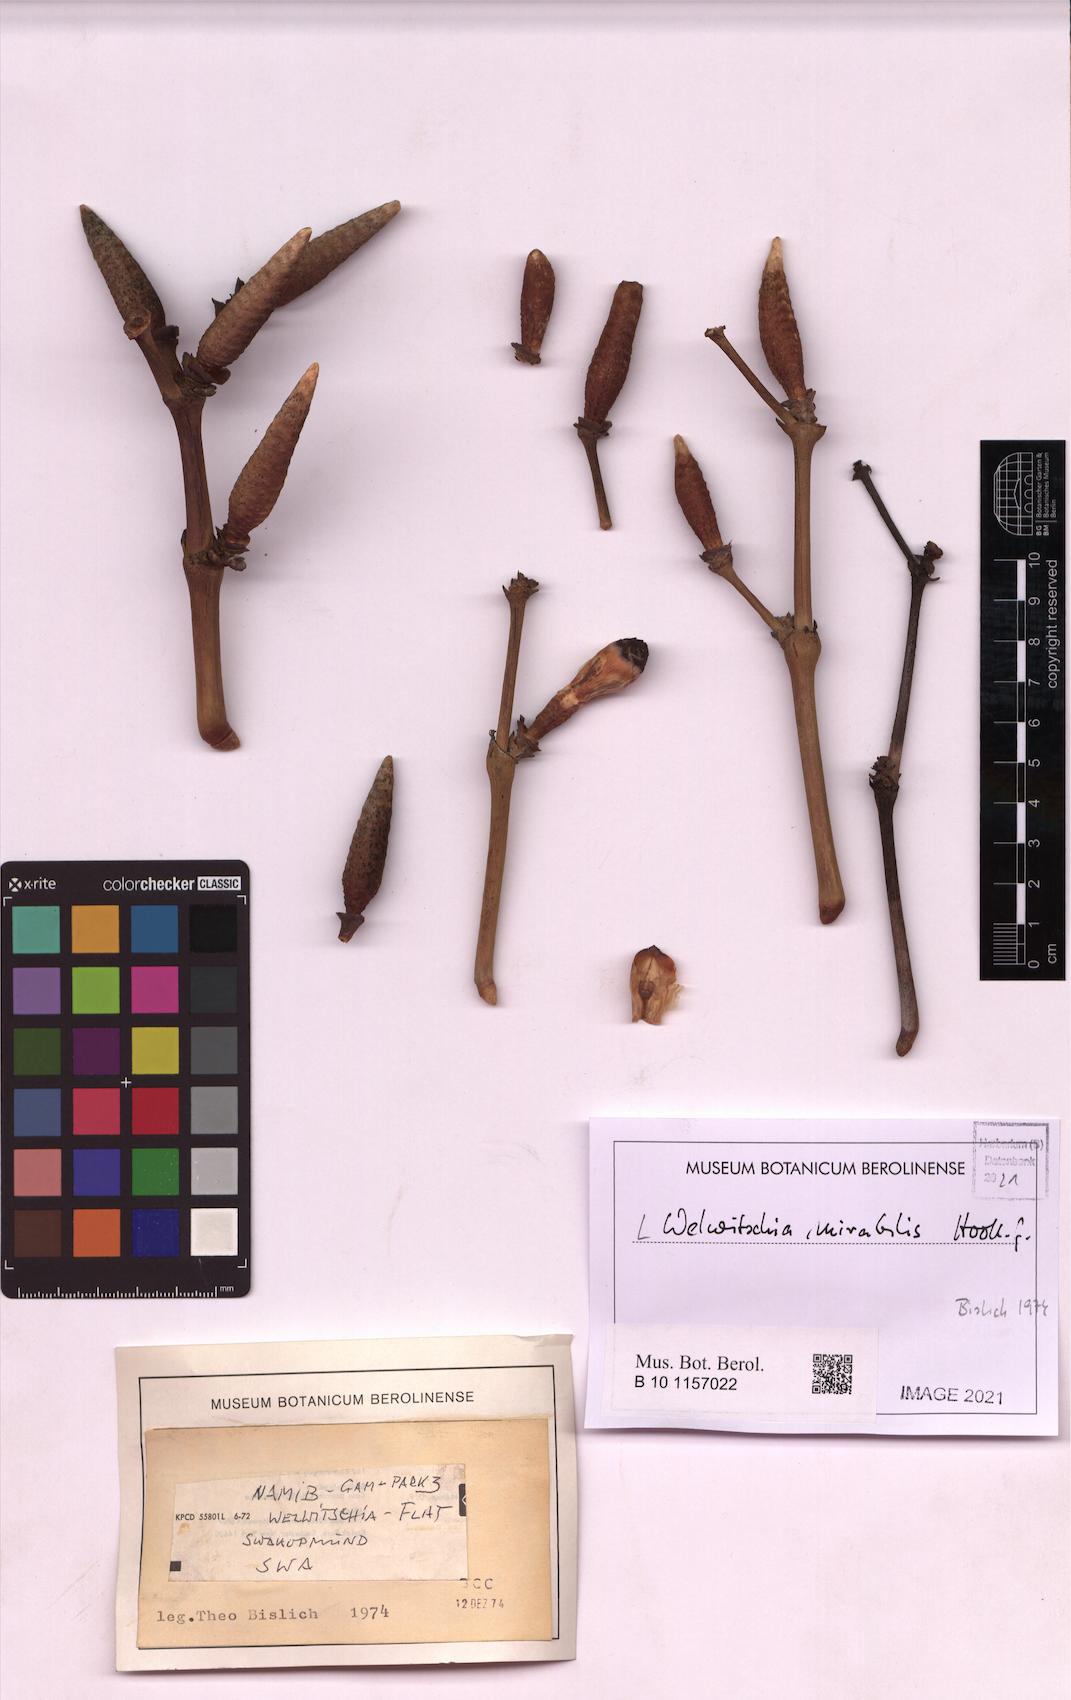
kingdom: Plantae
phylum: Tracheophyta
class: Gnetopsida
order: Welwitschiales
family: Welwitschiaceae
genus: Welwitschia
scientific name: Welwitschia mirabilis
